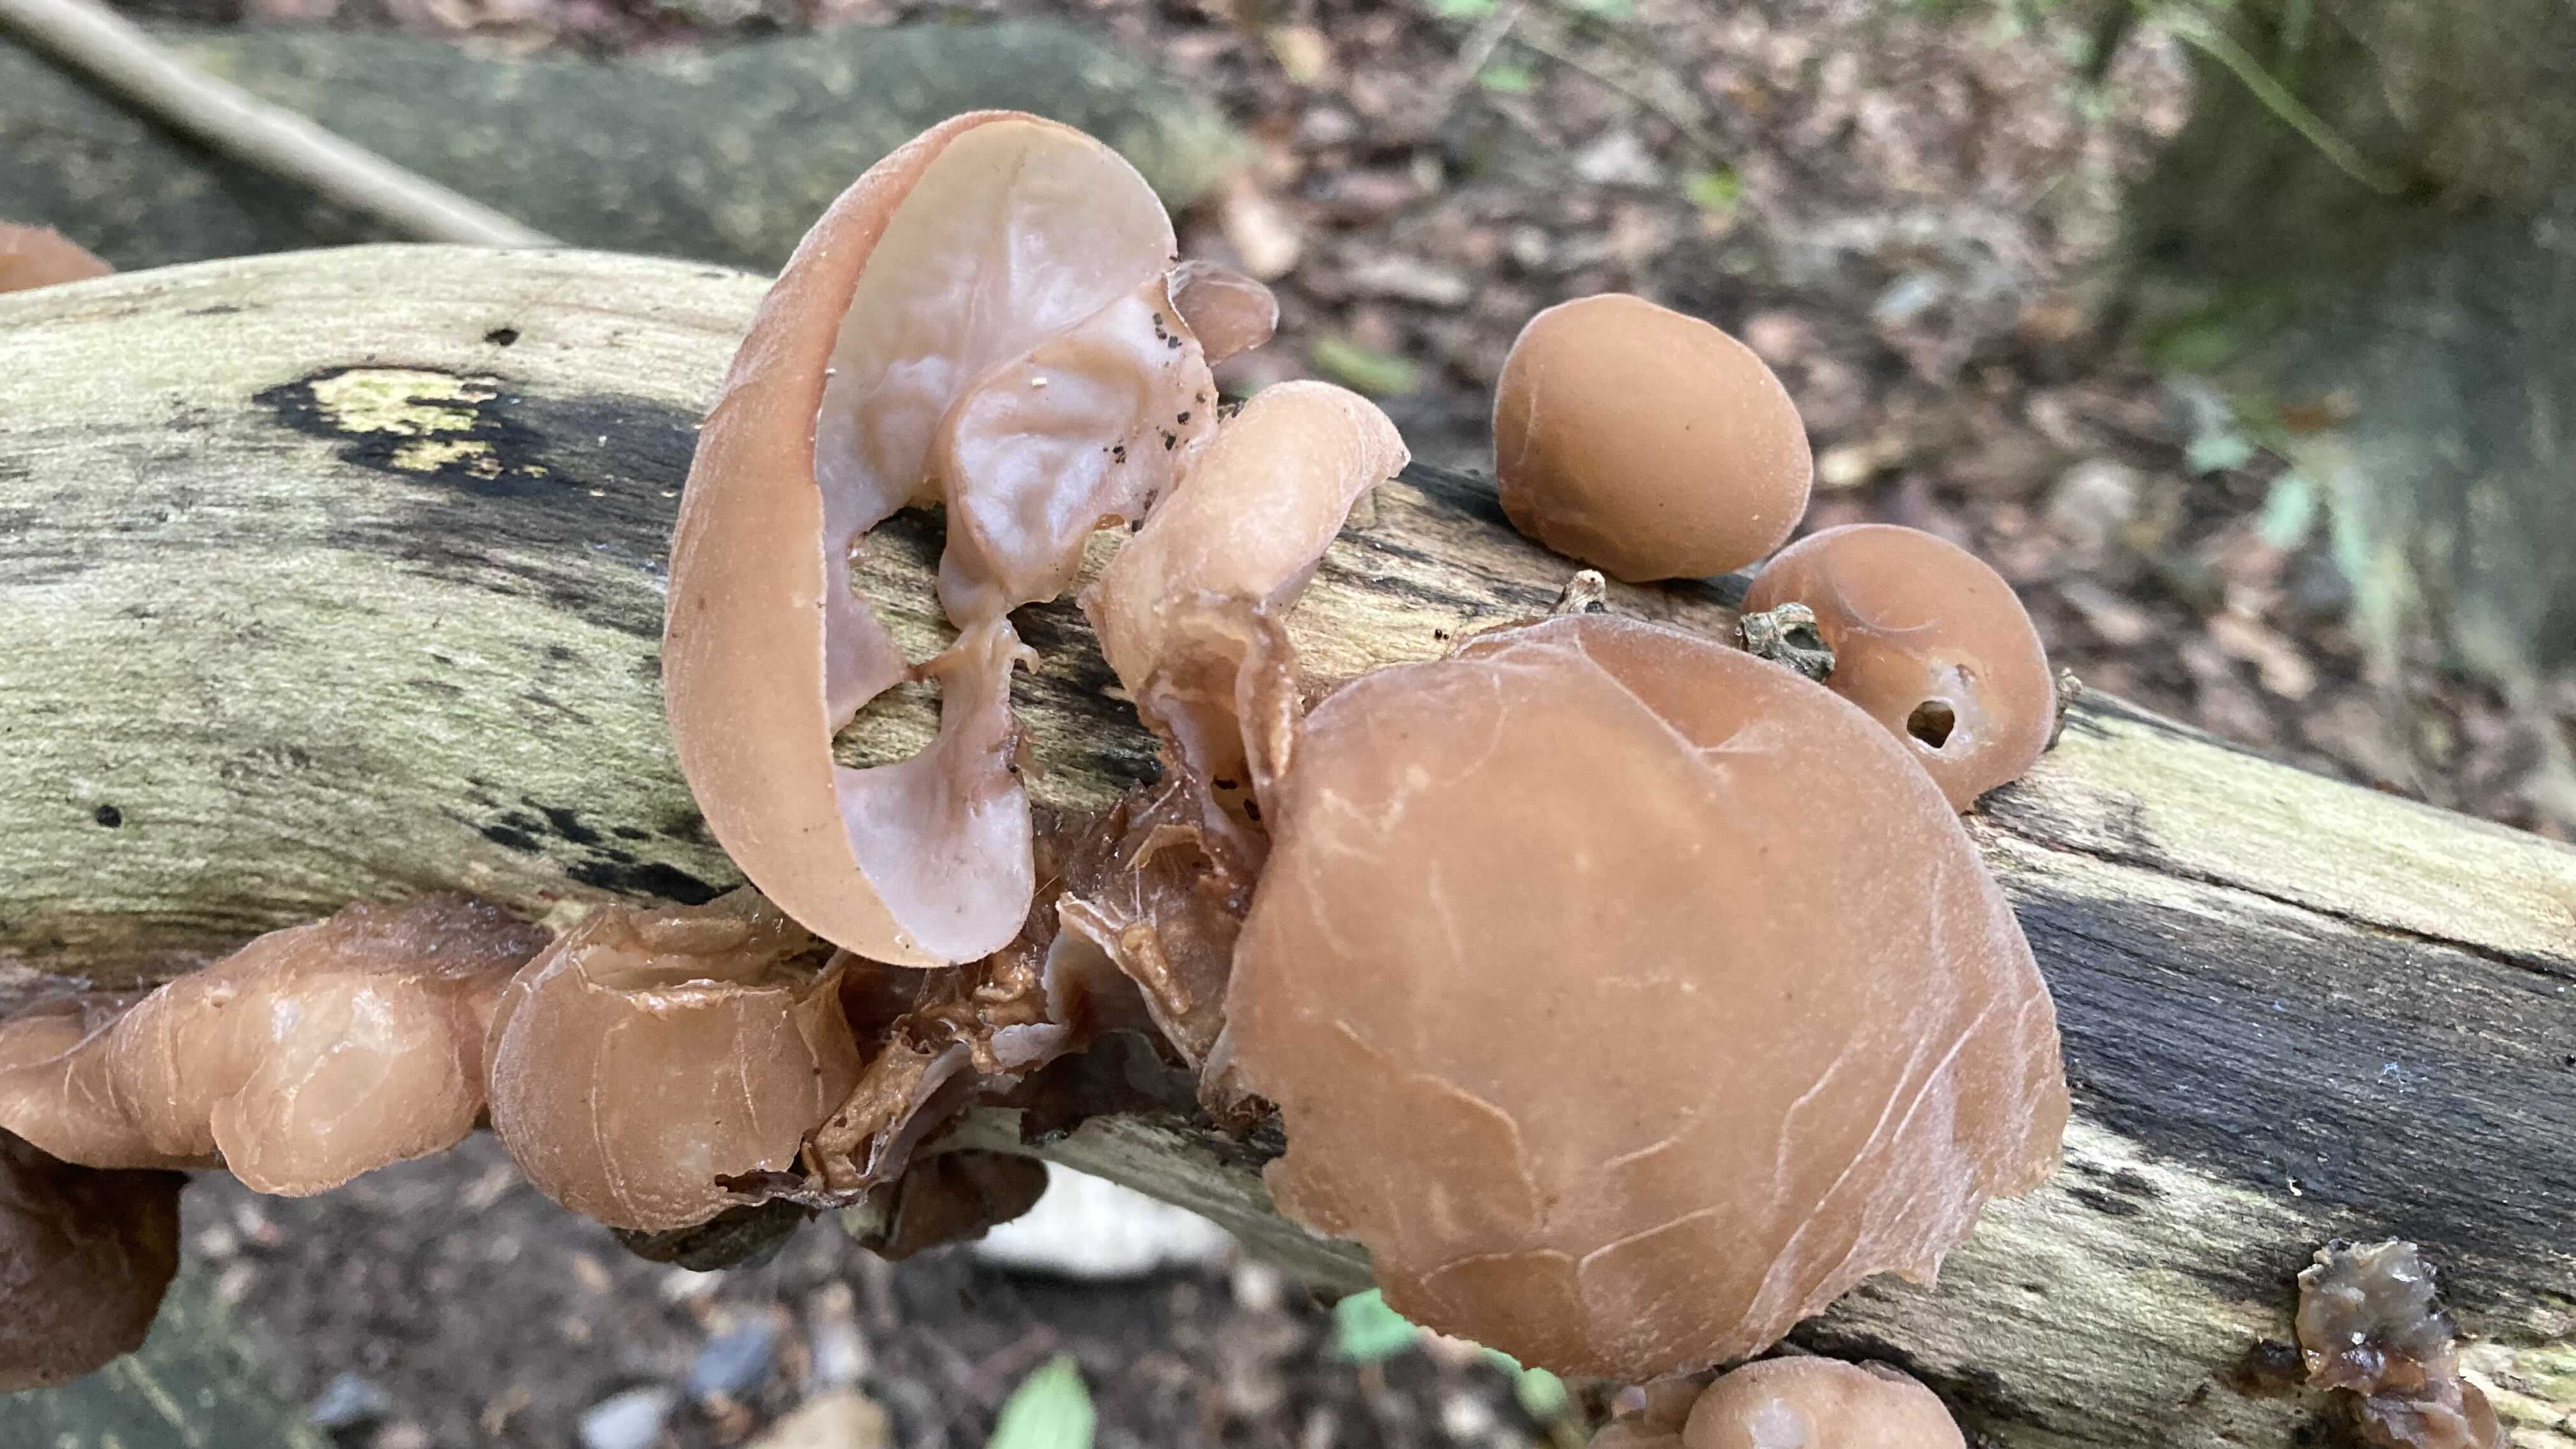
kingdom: Fungi
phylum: Basidiomycota
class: Agaricomycetes
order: Auriculariales
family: Auriculariaceae
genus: Auricularia
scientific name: Auricularia auricula-judae
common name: almindelig judasøre
